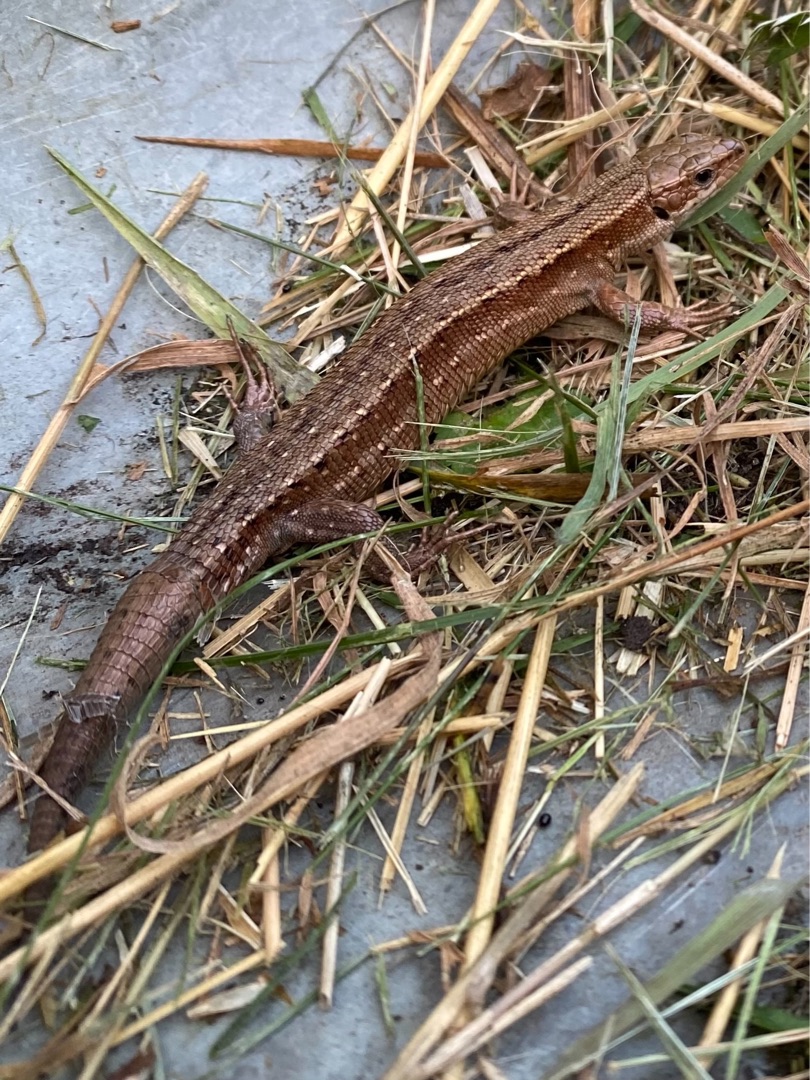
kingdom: Animalia
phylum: Chordata
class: Squamata
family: Lacertidae
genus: Zootoca
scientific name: Zootoca vivipara
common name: Skovfirben
